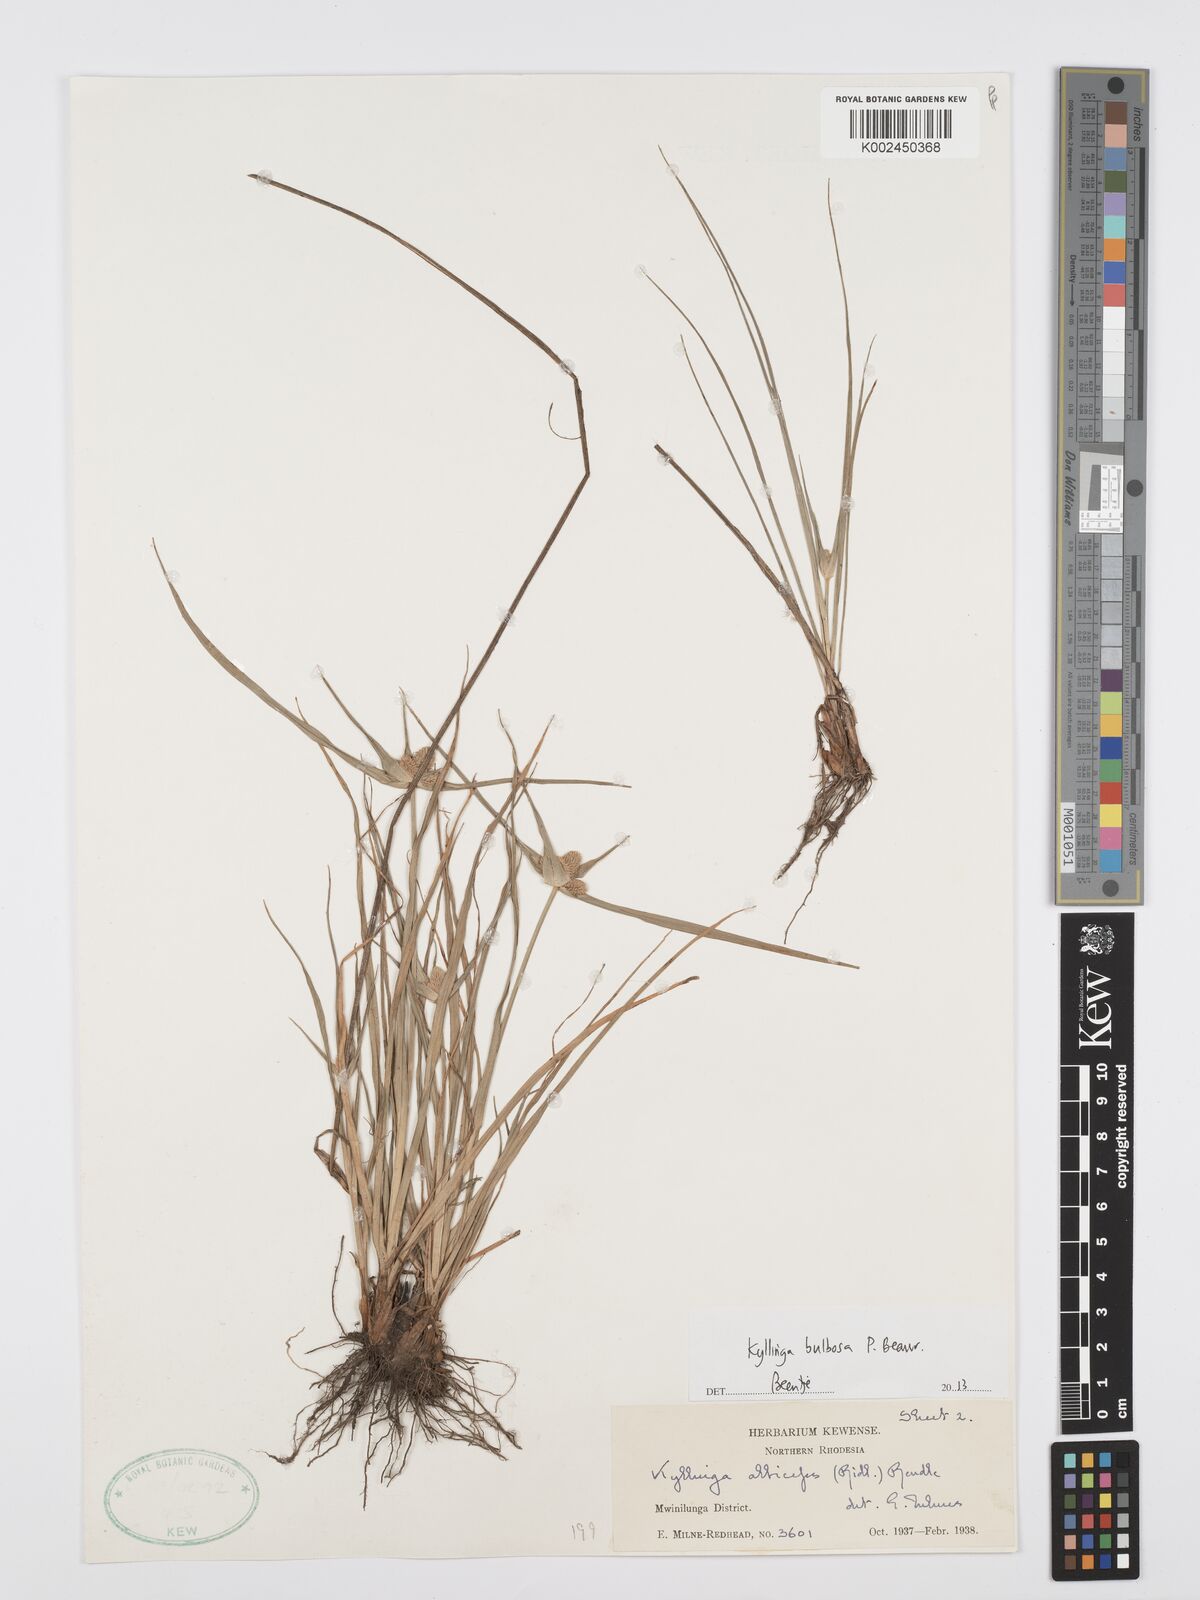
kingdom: Plantae
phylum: Tracheophyta
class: Liliopsida
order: Poales
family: Cyperaceae
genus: Cyperus
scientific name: Cyperus
